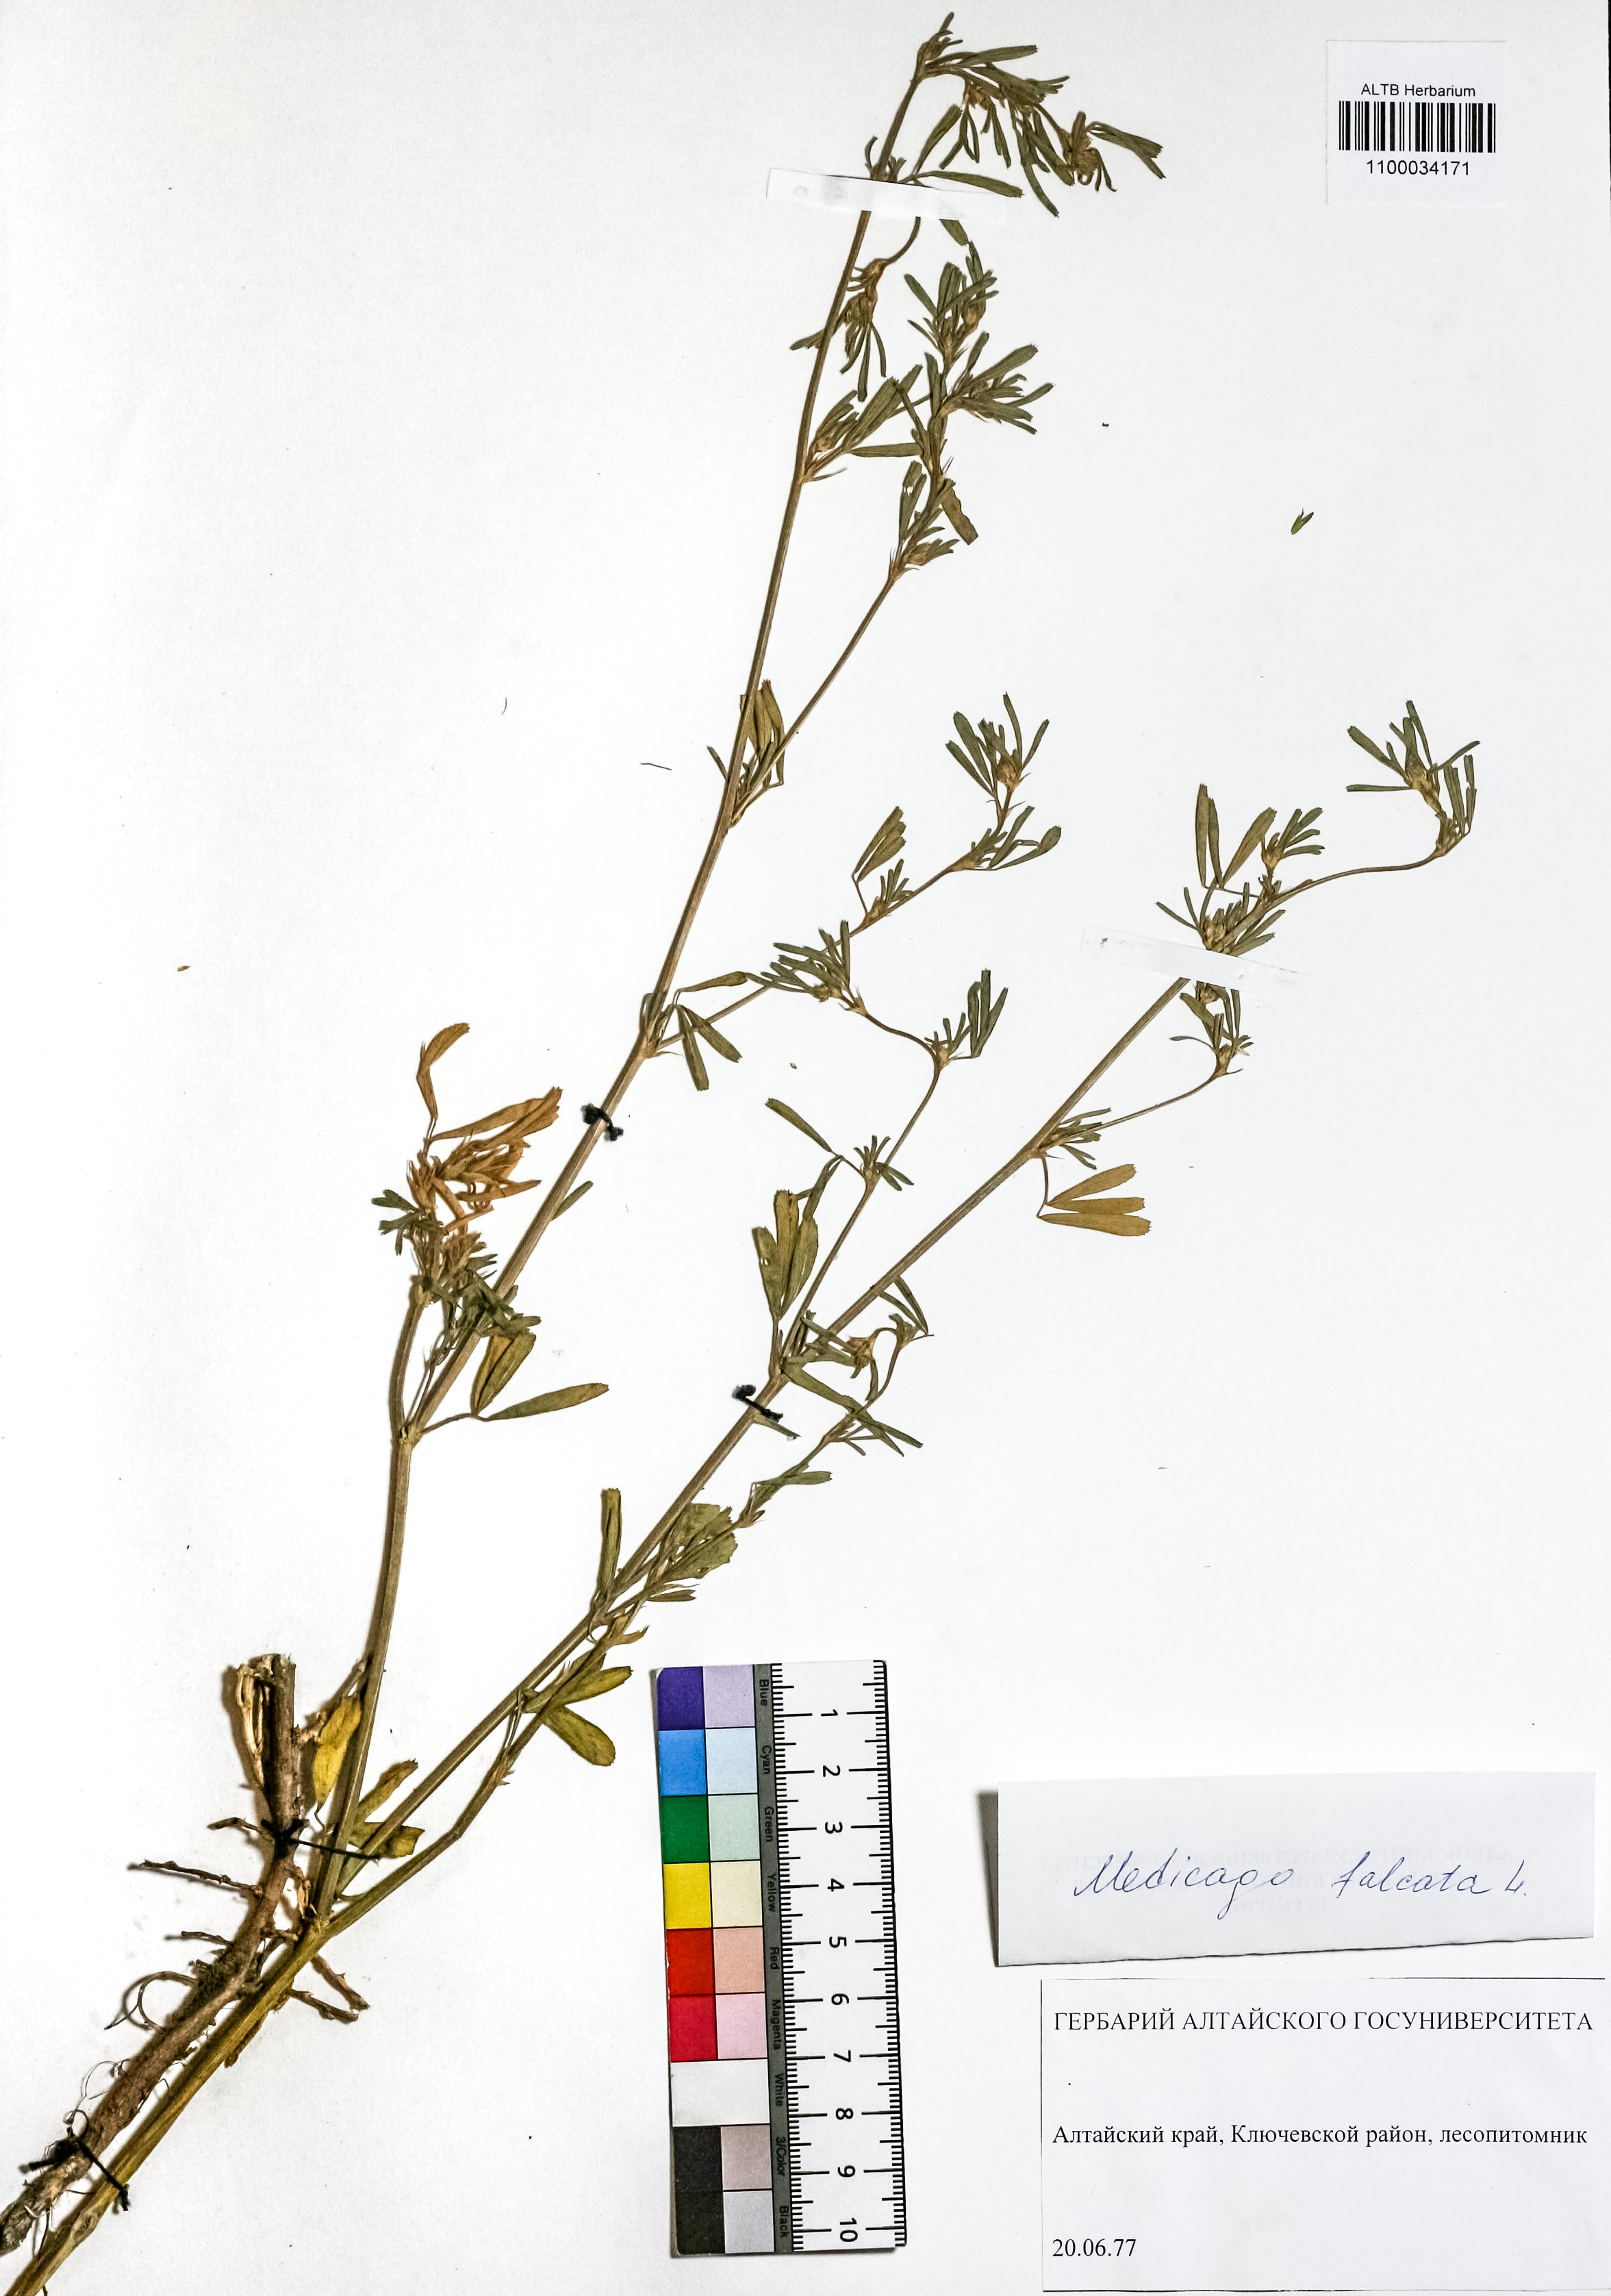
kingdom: Plantae
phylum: Tracheophyta
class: Magnoliopsida
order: Fabales
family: Fabaceae
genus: Medicago
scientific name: Medicago falcata
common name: Sickle medick
